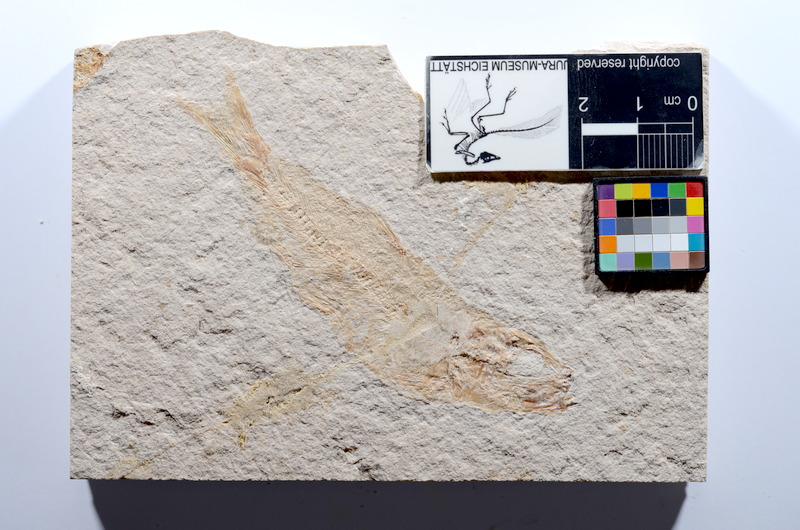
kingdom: Animalia
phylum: Chordata
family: Ascalaboidae
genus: Tharsis
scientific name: Tharsis dubius
